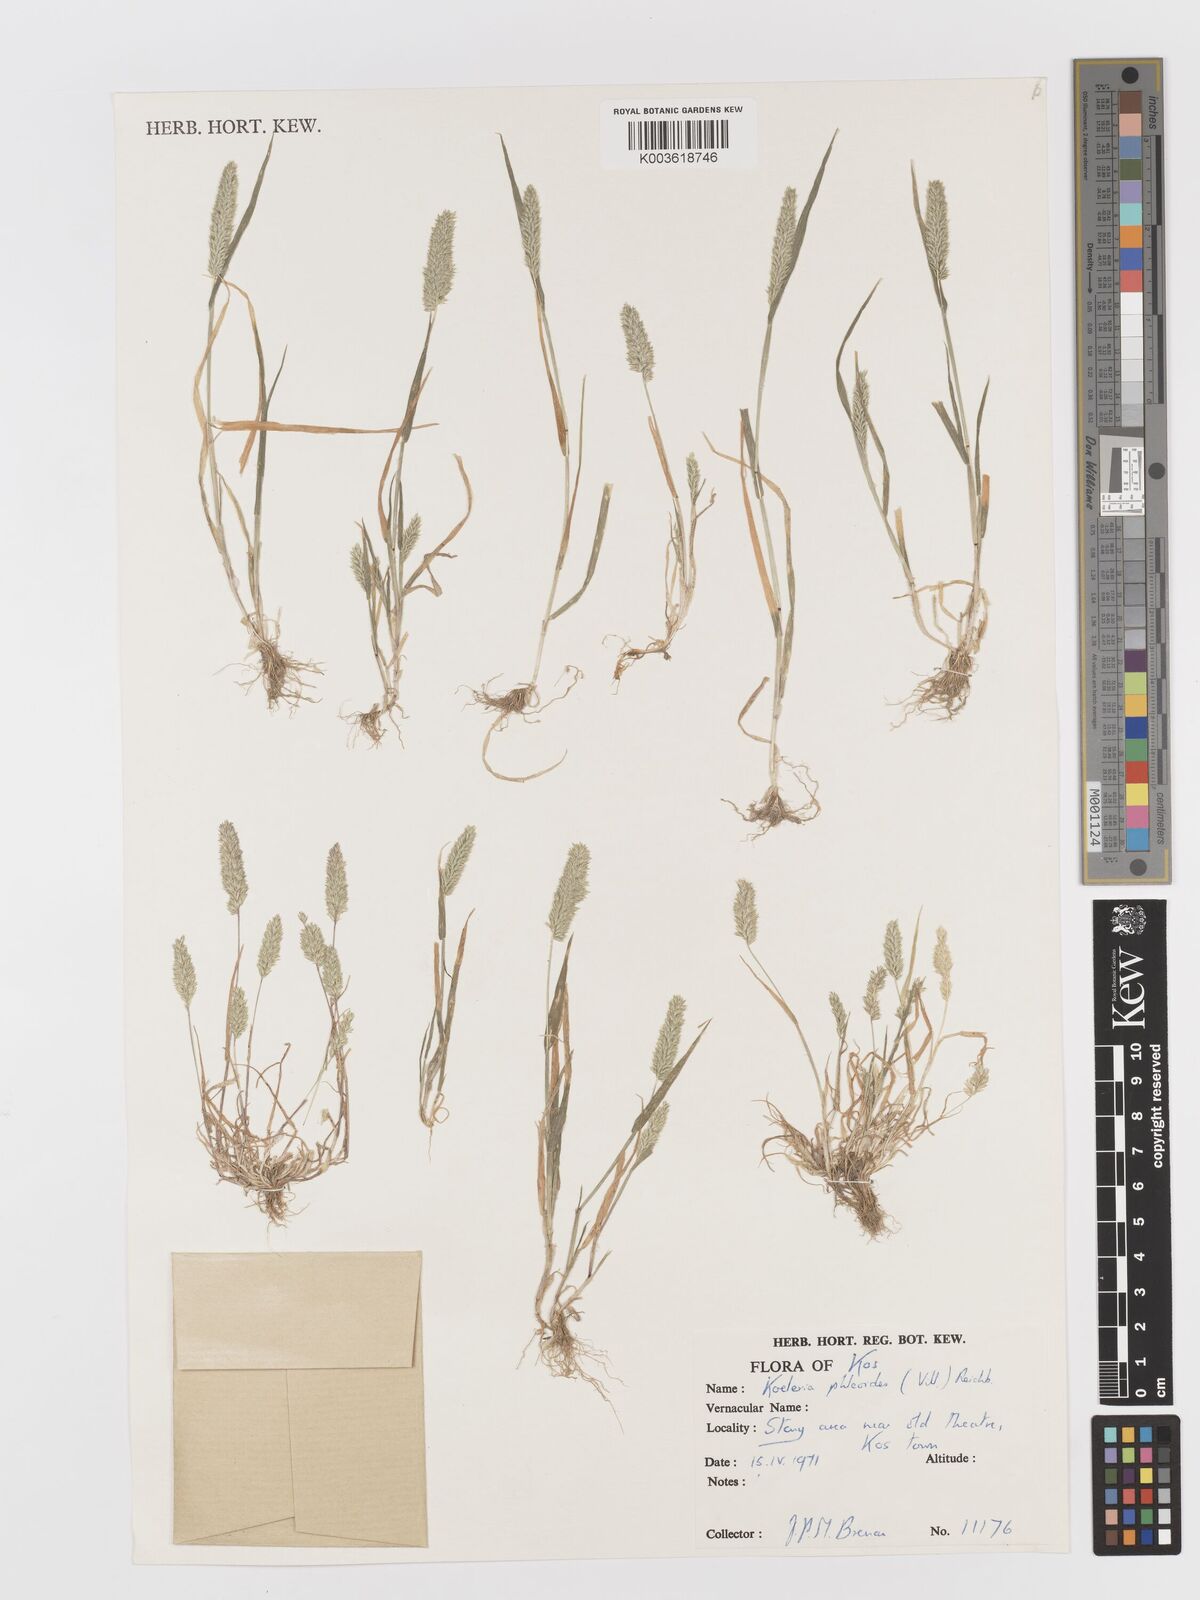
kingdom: Plantae
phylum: Tracheophyta
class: Liliopsida
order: Poales
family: Poaceae
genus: Rostraria
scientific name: Rostraria cristata
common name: Mediterranean hair-grass
